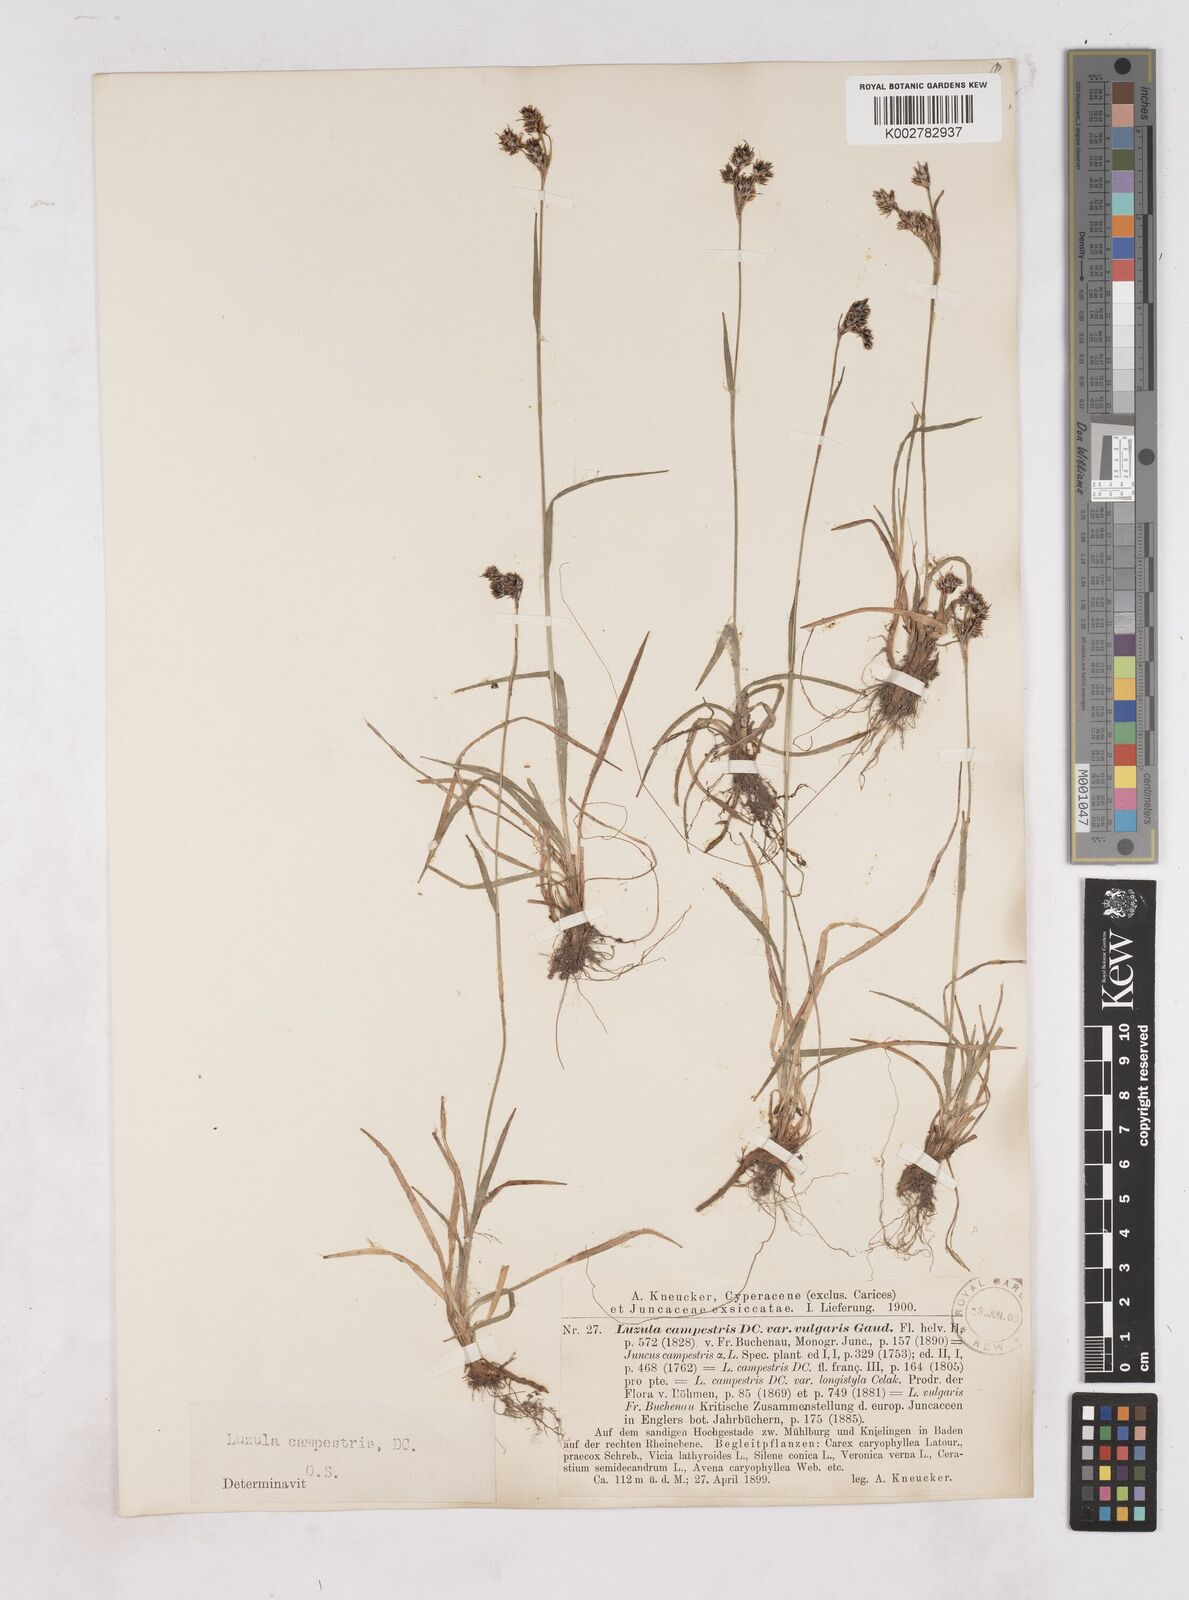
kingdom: Plantae
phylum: Tracheophyta
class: Liliopsida
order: Poales
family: Juncaceae
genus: Luzula
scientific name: Luzula campestris
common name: Field wood-rush
